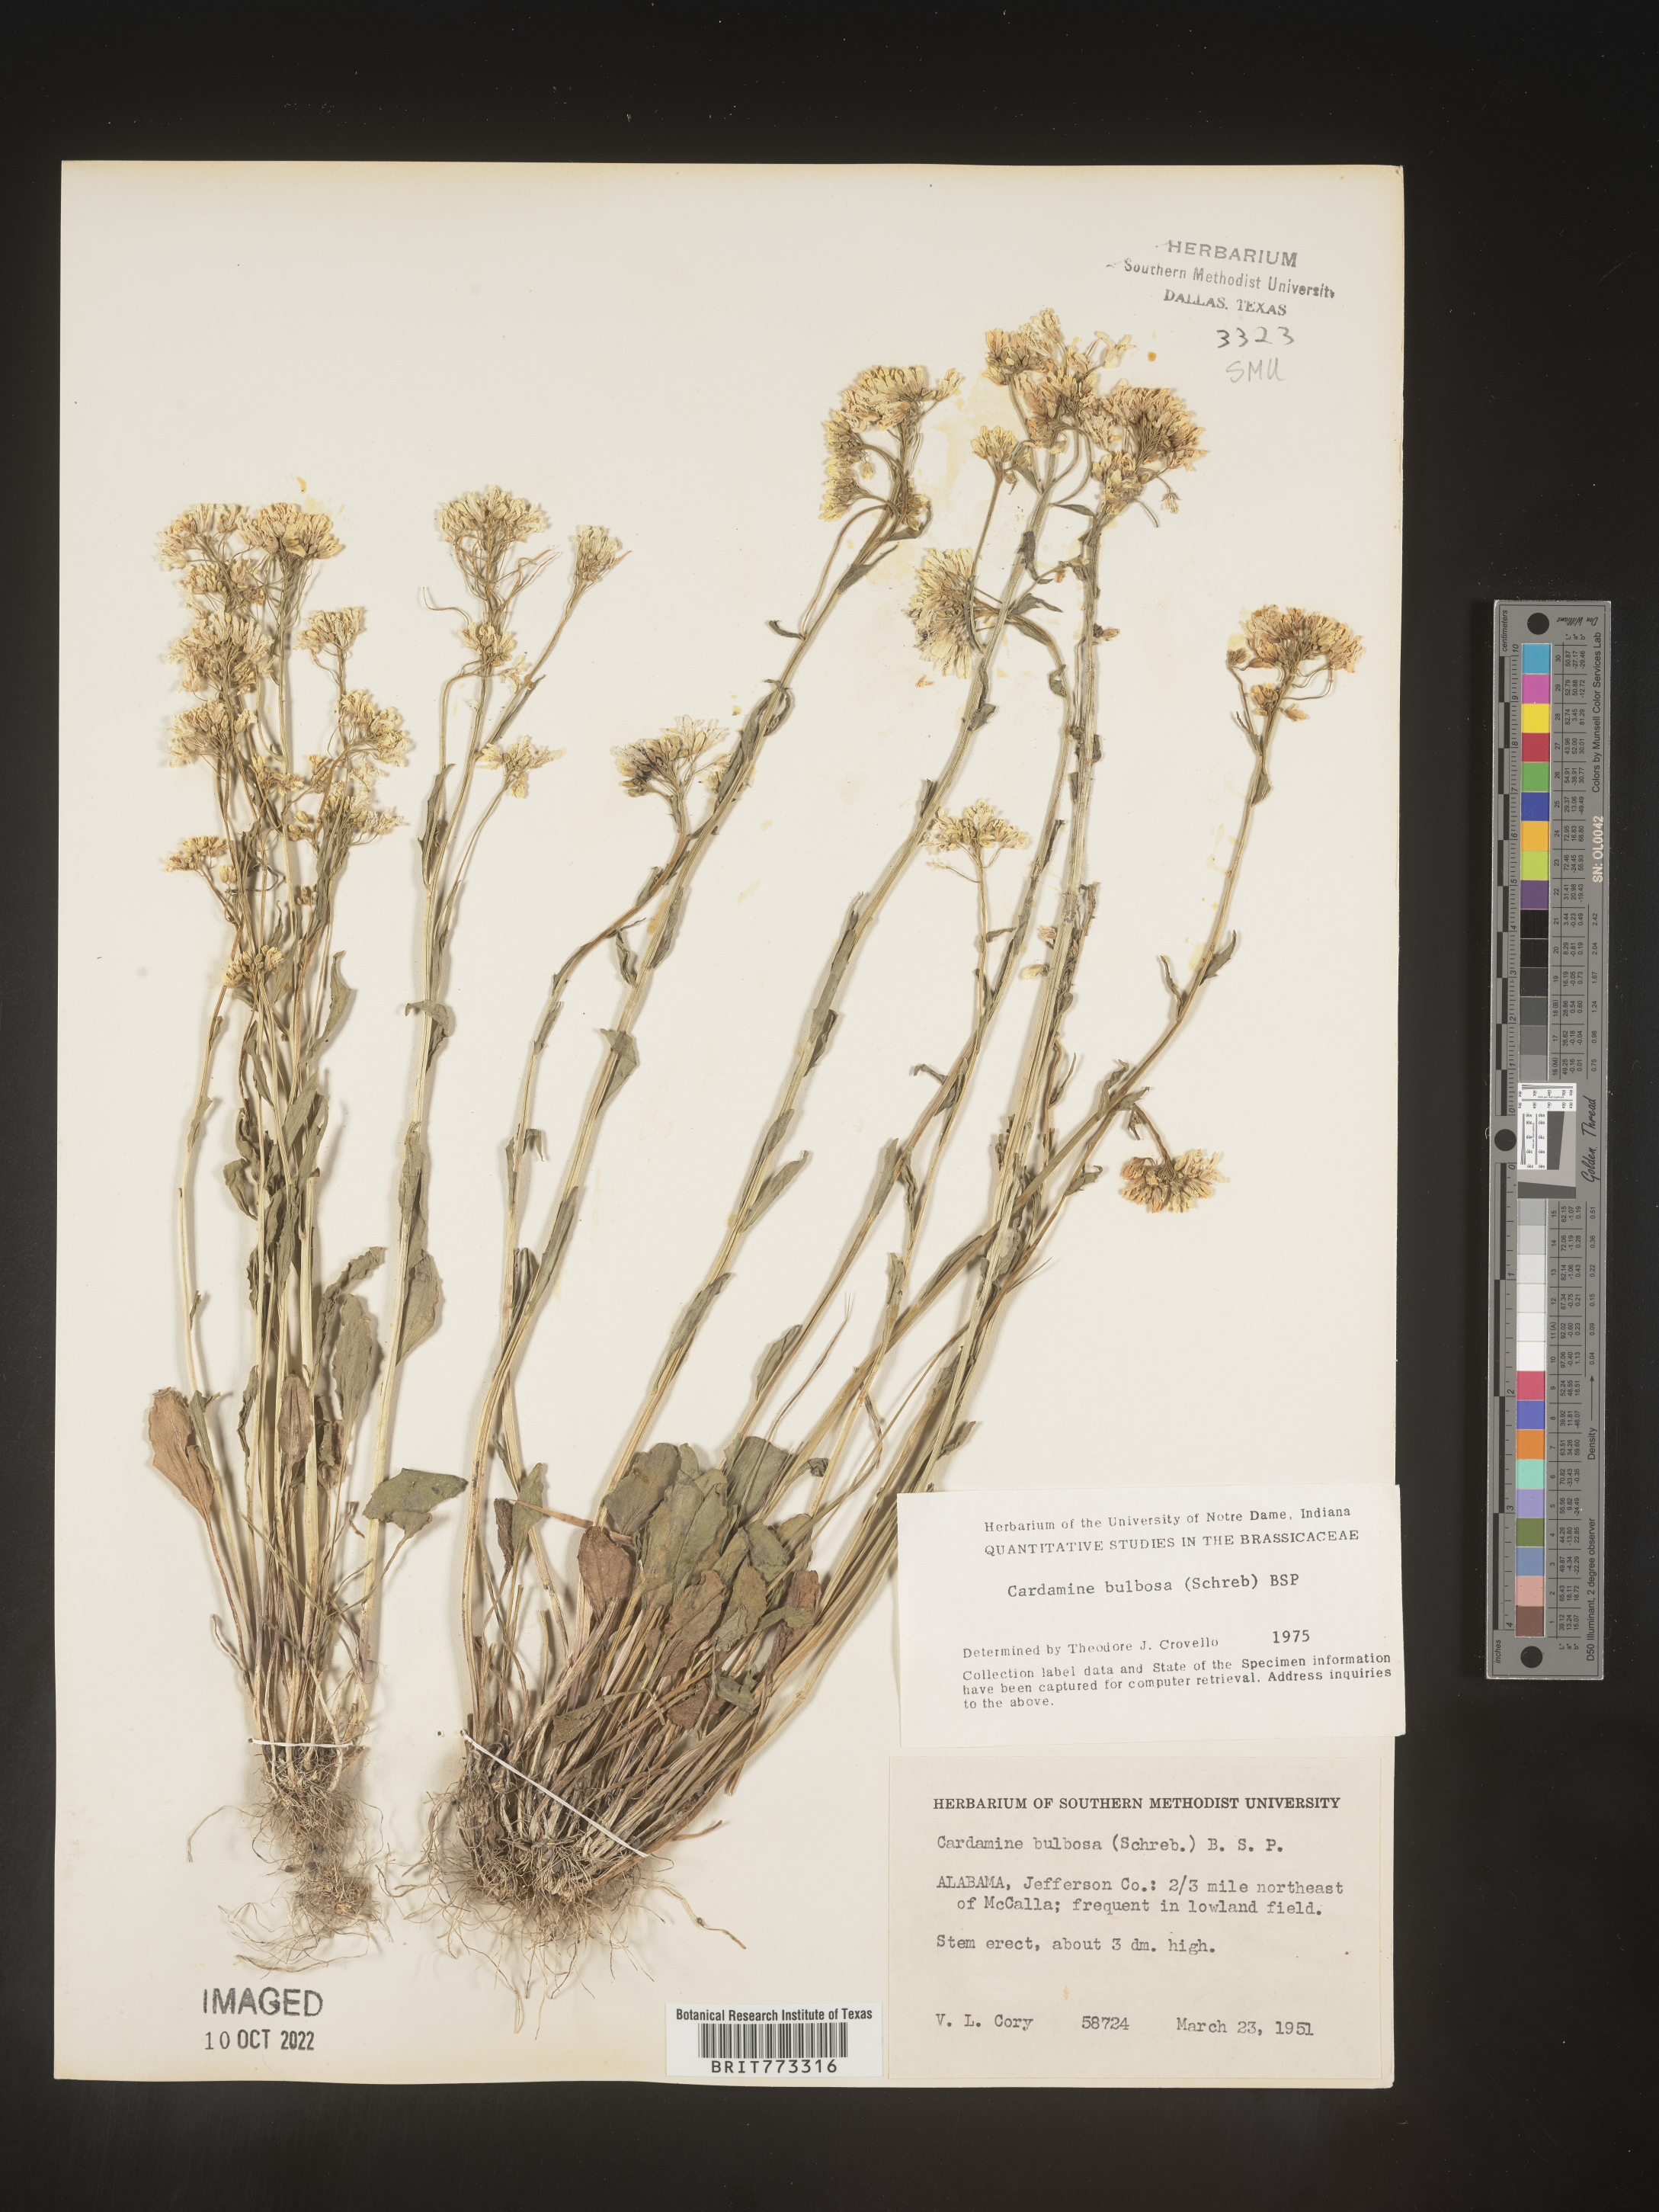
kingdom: Plantae
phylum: Tracheophyta
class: Magnoliopsida
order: Brassicales
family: Brassicaceae
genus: Cardamine
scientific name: Cardamine bulbosa
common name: Spring cress
